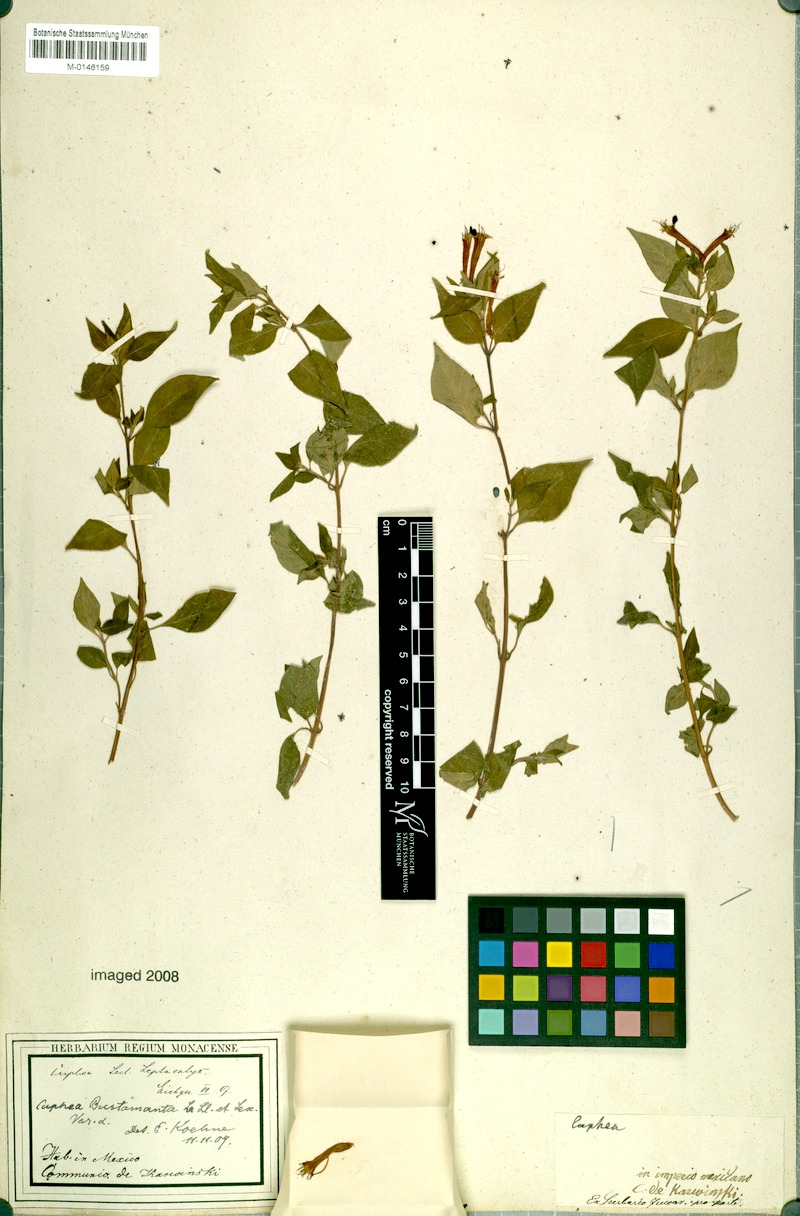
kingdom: Plantae
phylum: Tracheophyta
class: Magnoliopsida
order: Myrtales
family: Lythraceae
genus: Cuphea
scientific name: Cuphea bustamanta
